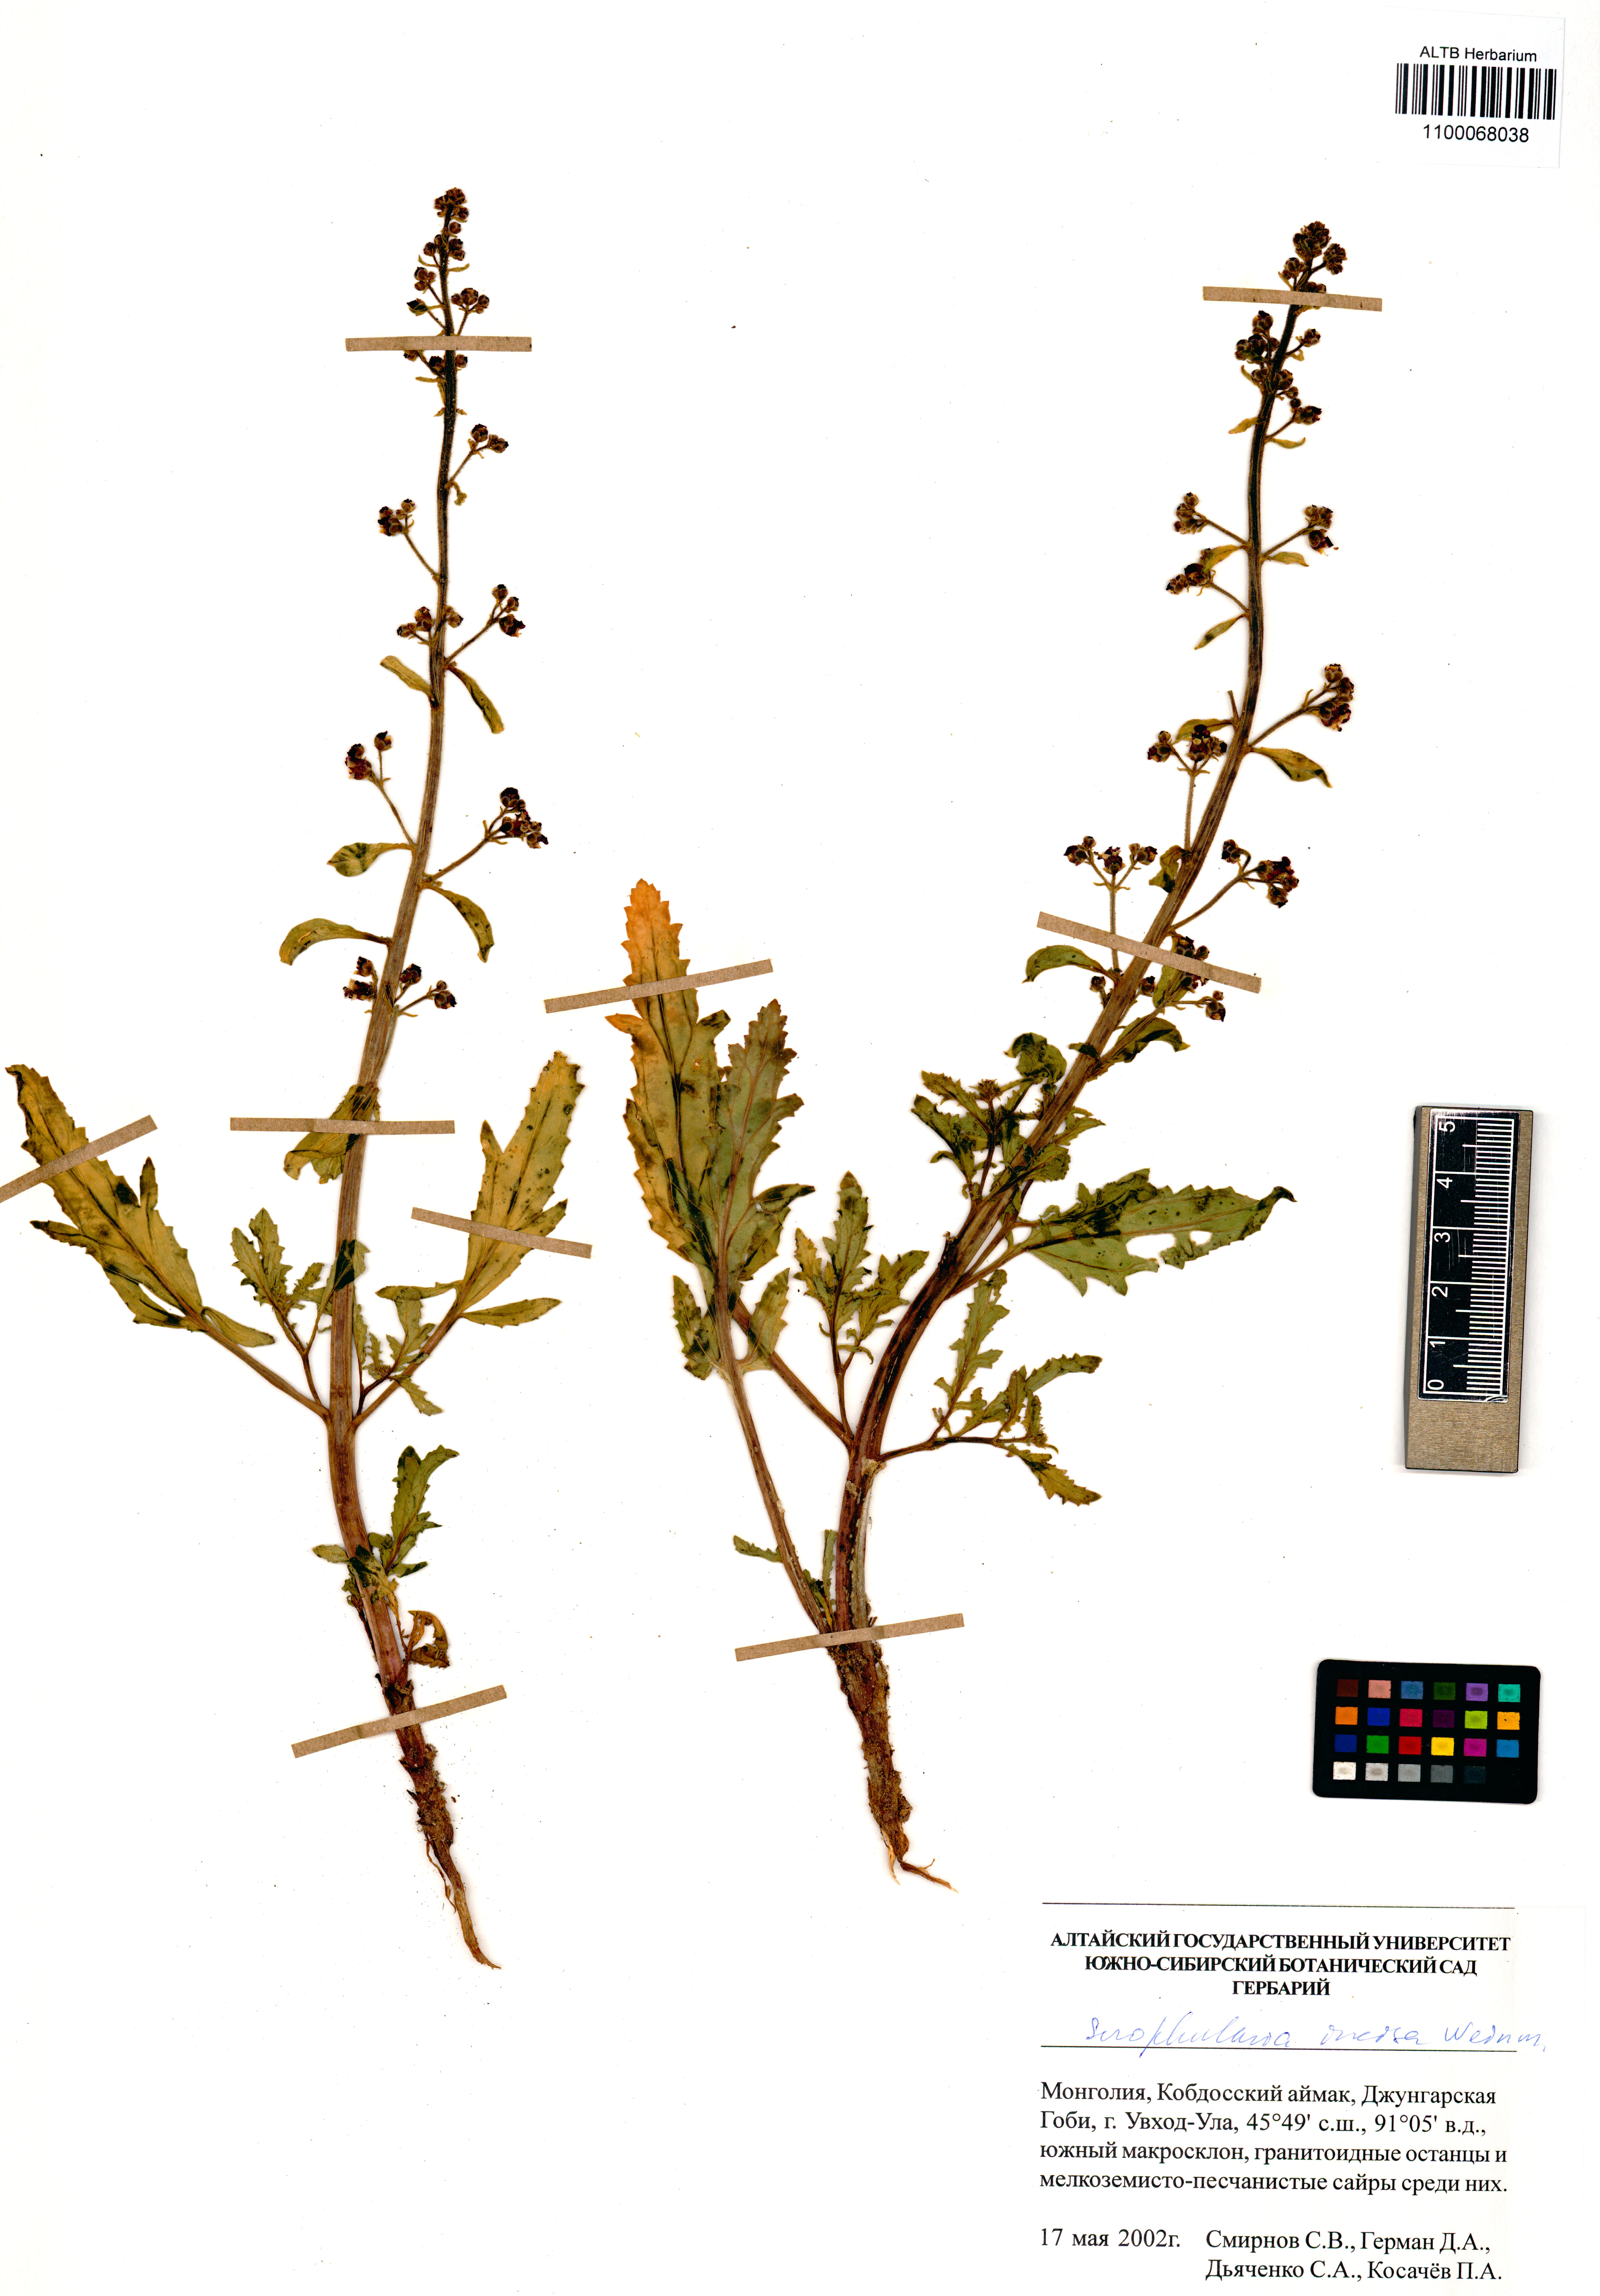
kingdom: Plantae
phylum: Tracheophyta
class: Magnoliopsida
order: Lamiales
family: Scrophulariaceae
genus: Scrophularia
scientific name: Scrophularia incisa
